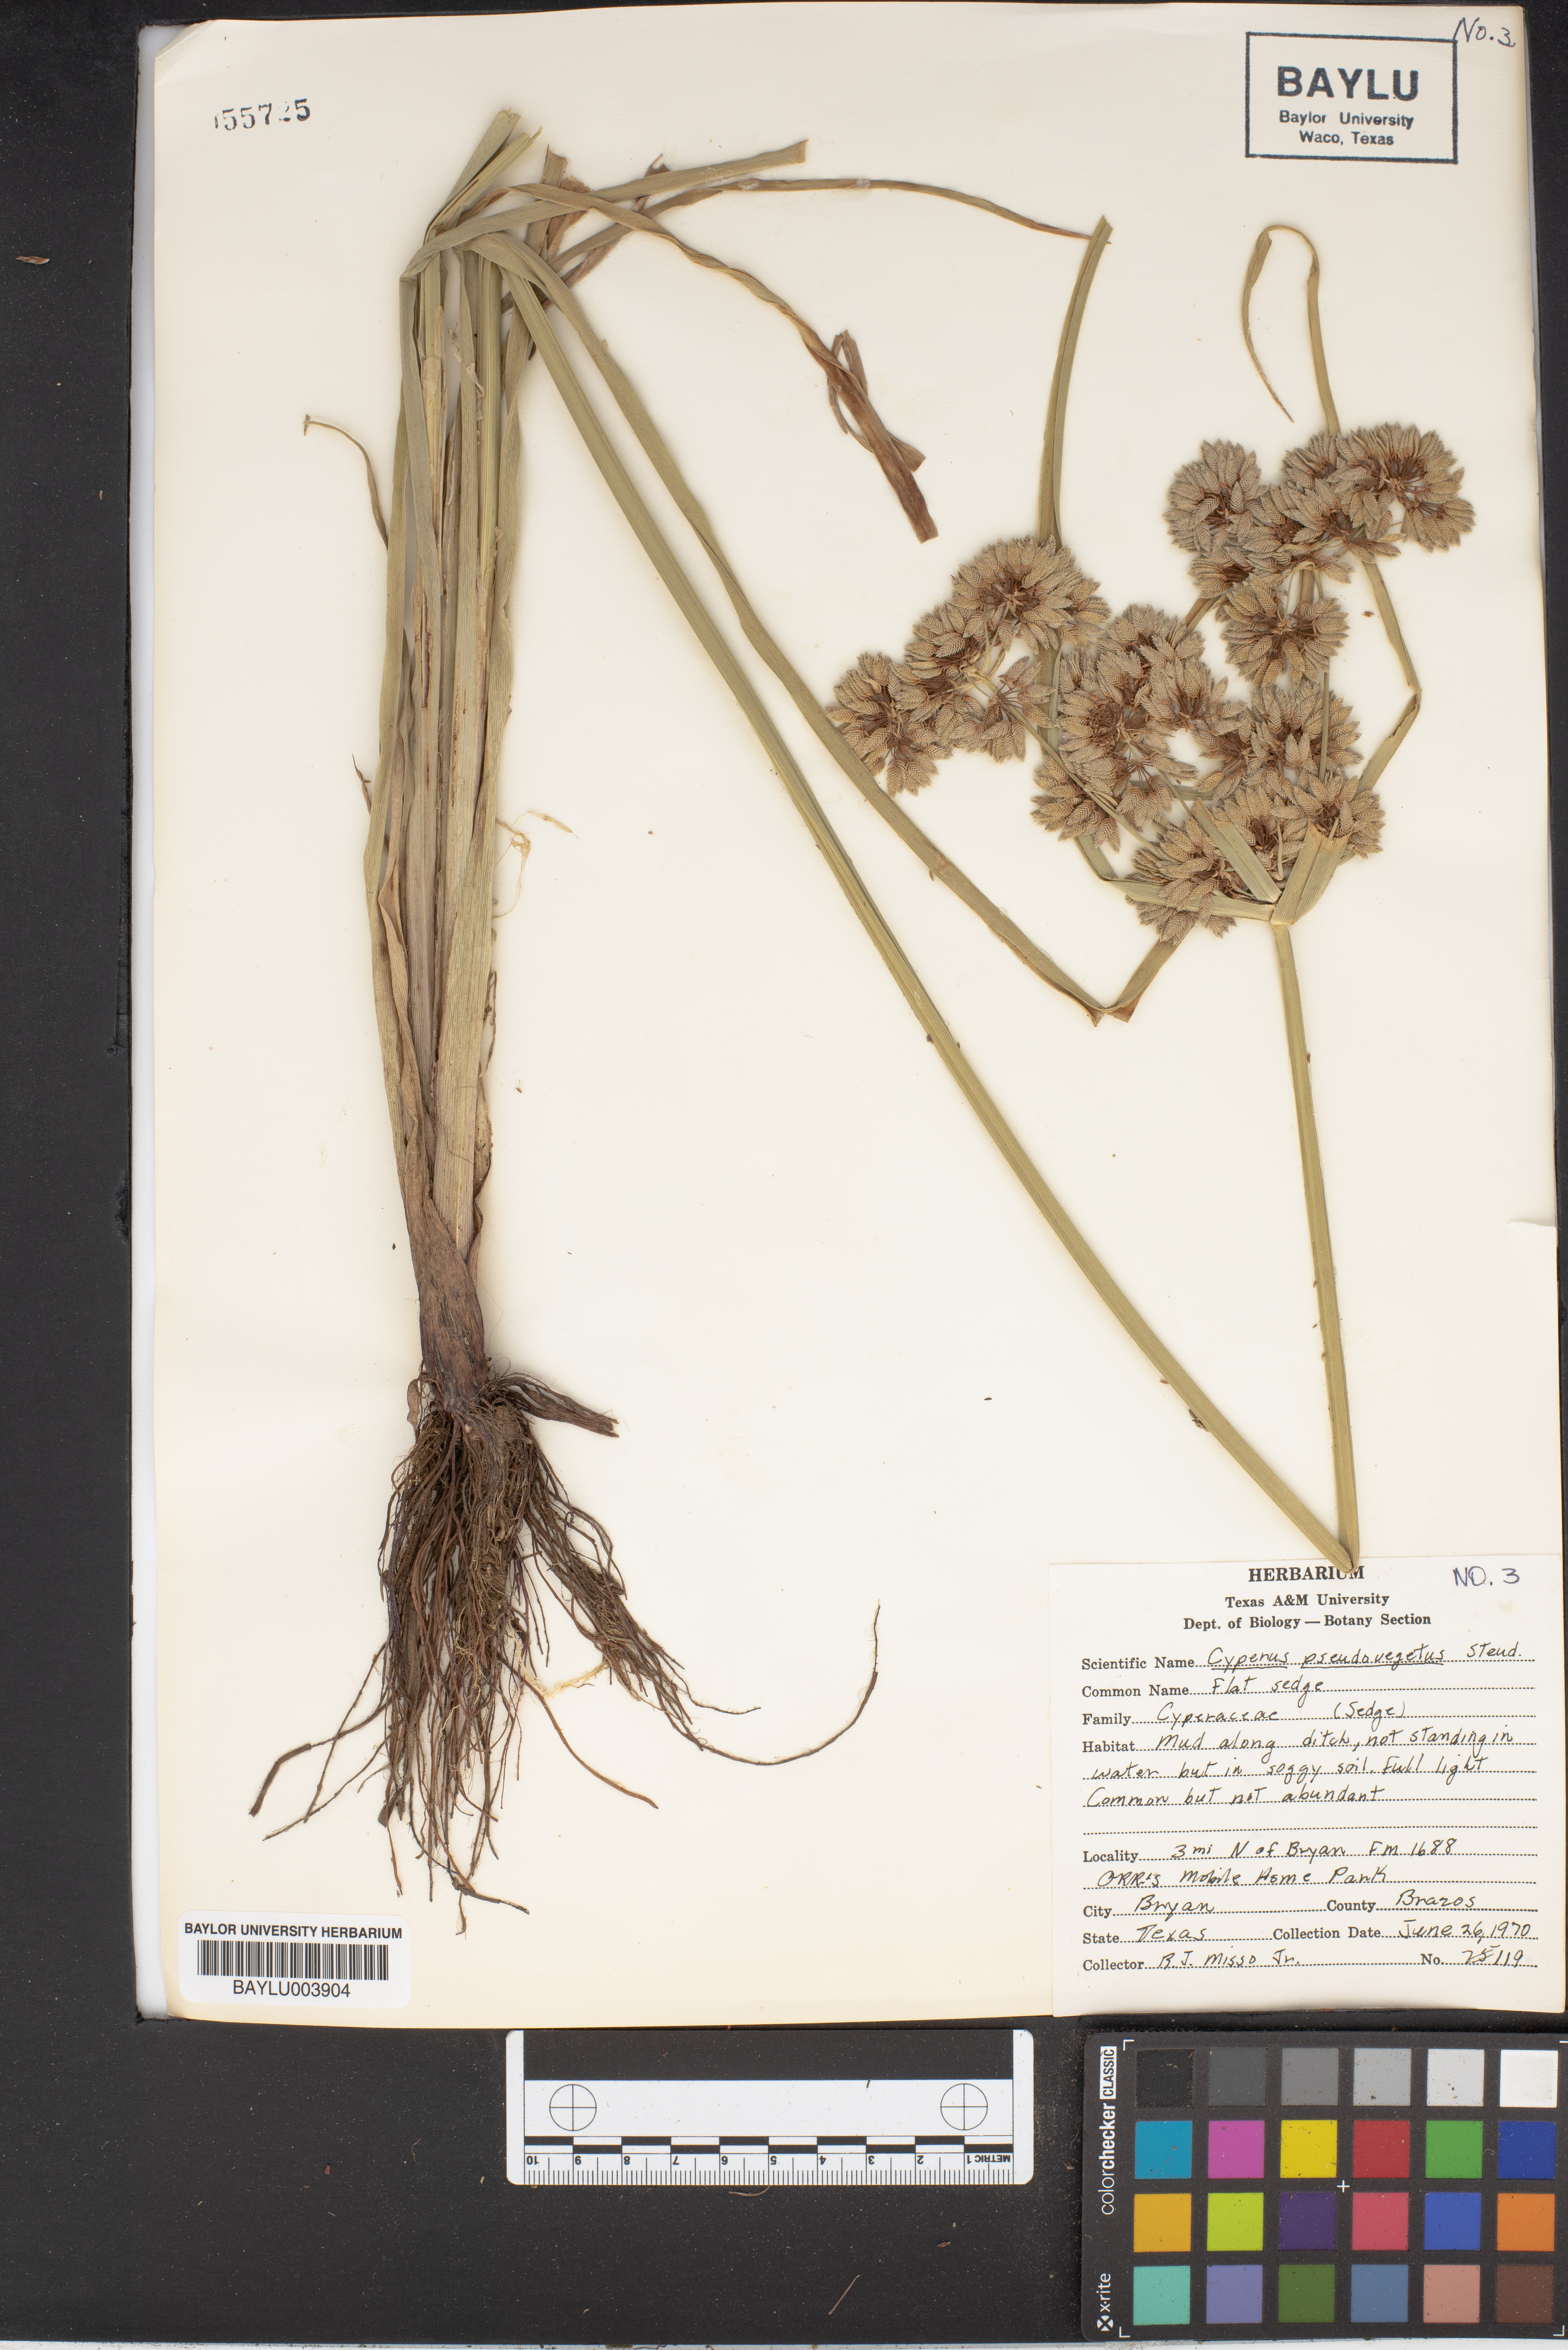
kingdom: Plantae
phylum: Tracheophyta
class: Liliopsida
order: Poales
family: Cyperaceae
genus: Cyperus
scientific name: Cyperus pseudovegetus
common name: Marsh flat sedge
